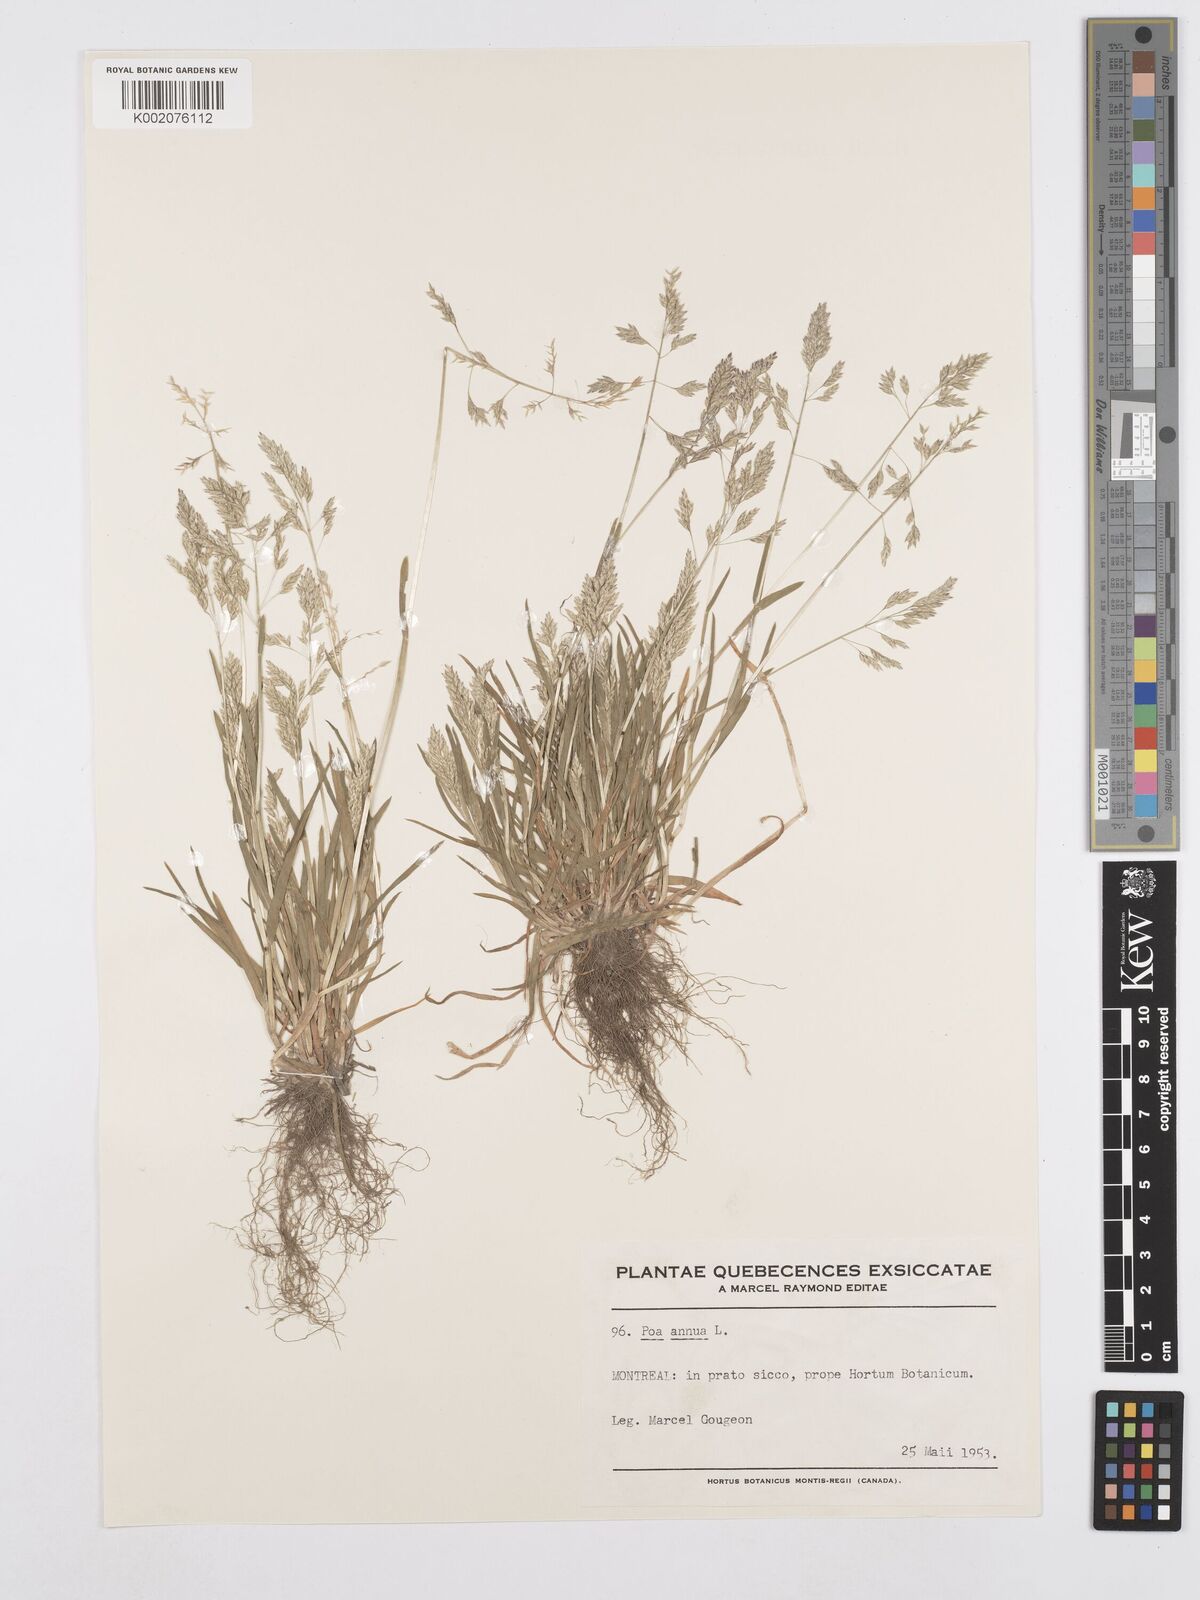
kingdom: Plantae
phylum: Tracheophyta
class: Liliopsida
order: Poales
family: Poaceae
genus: Poa
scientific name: Poa annua
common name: Annual bluegrass
